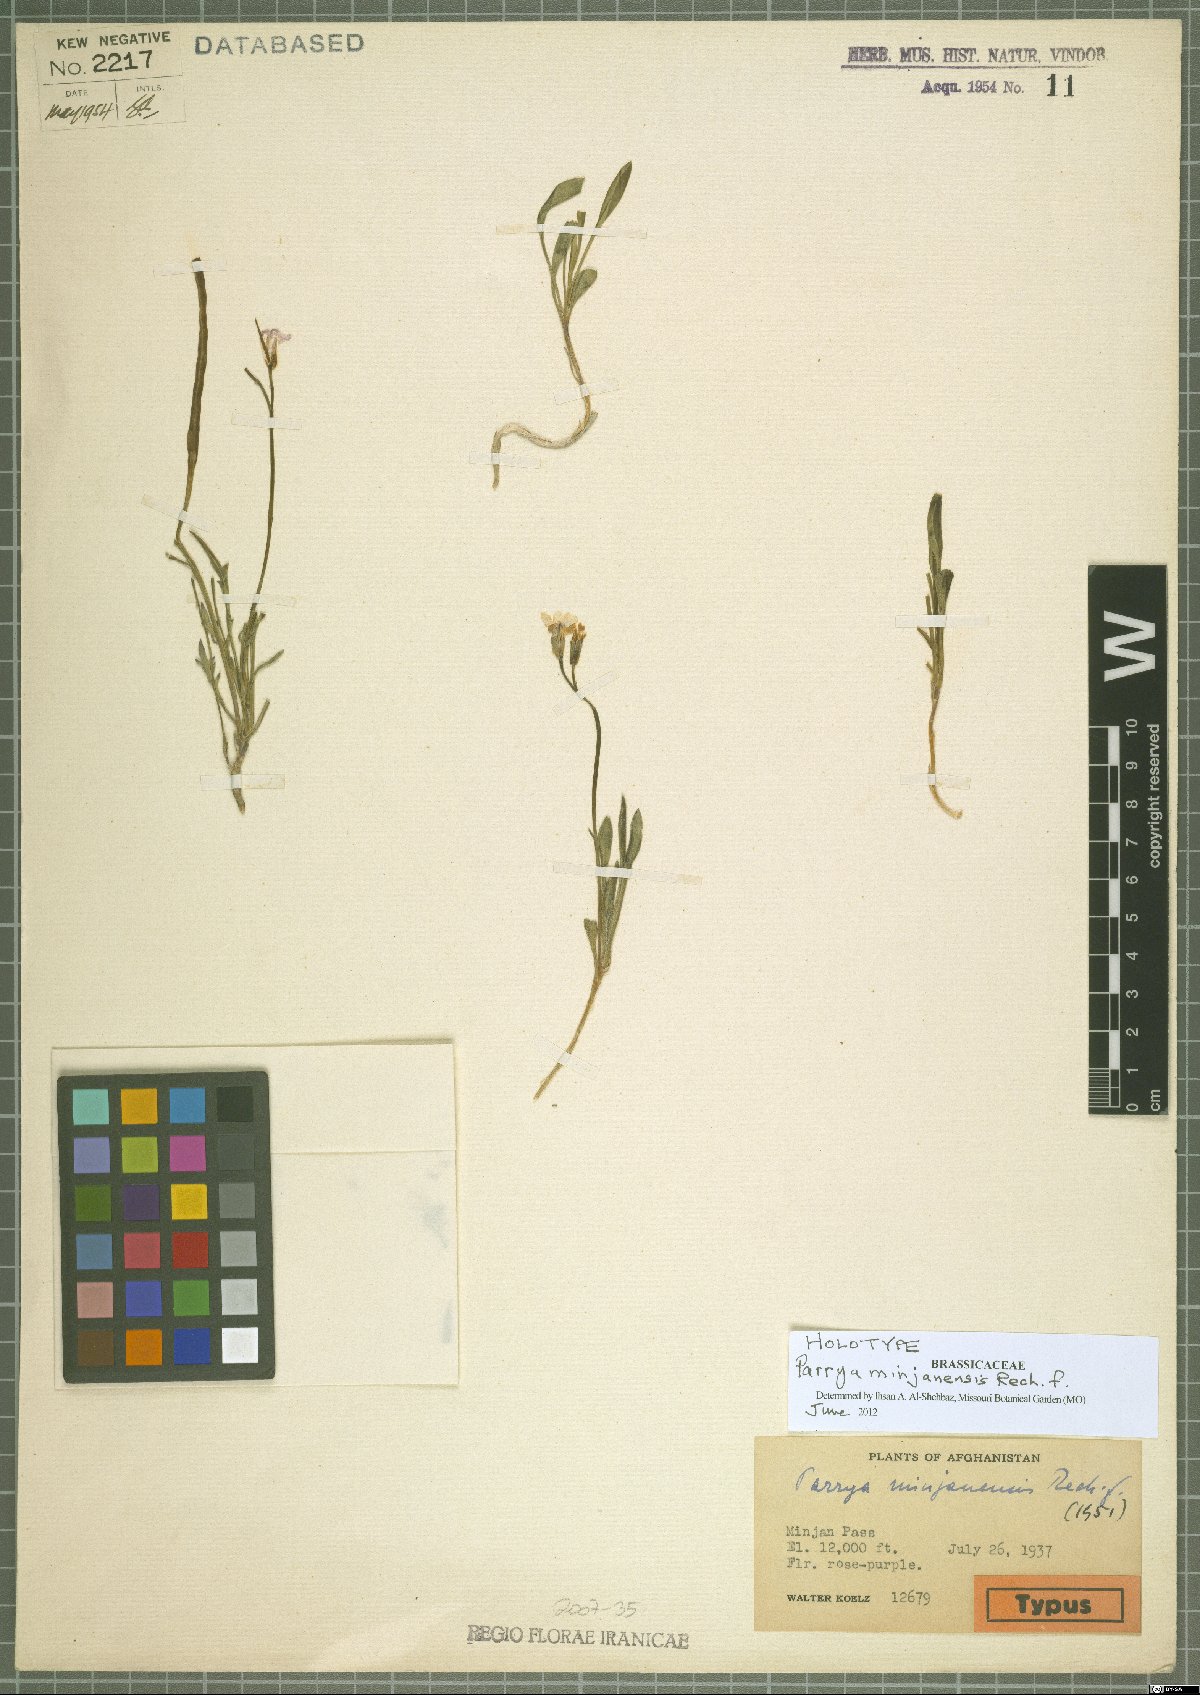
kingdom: Plantae
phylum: Tracheophyta
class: Magnoliopsida
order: Brassicales
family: Brassicaceae
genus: Parrya
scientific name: Parrya minjanensis
